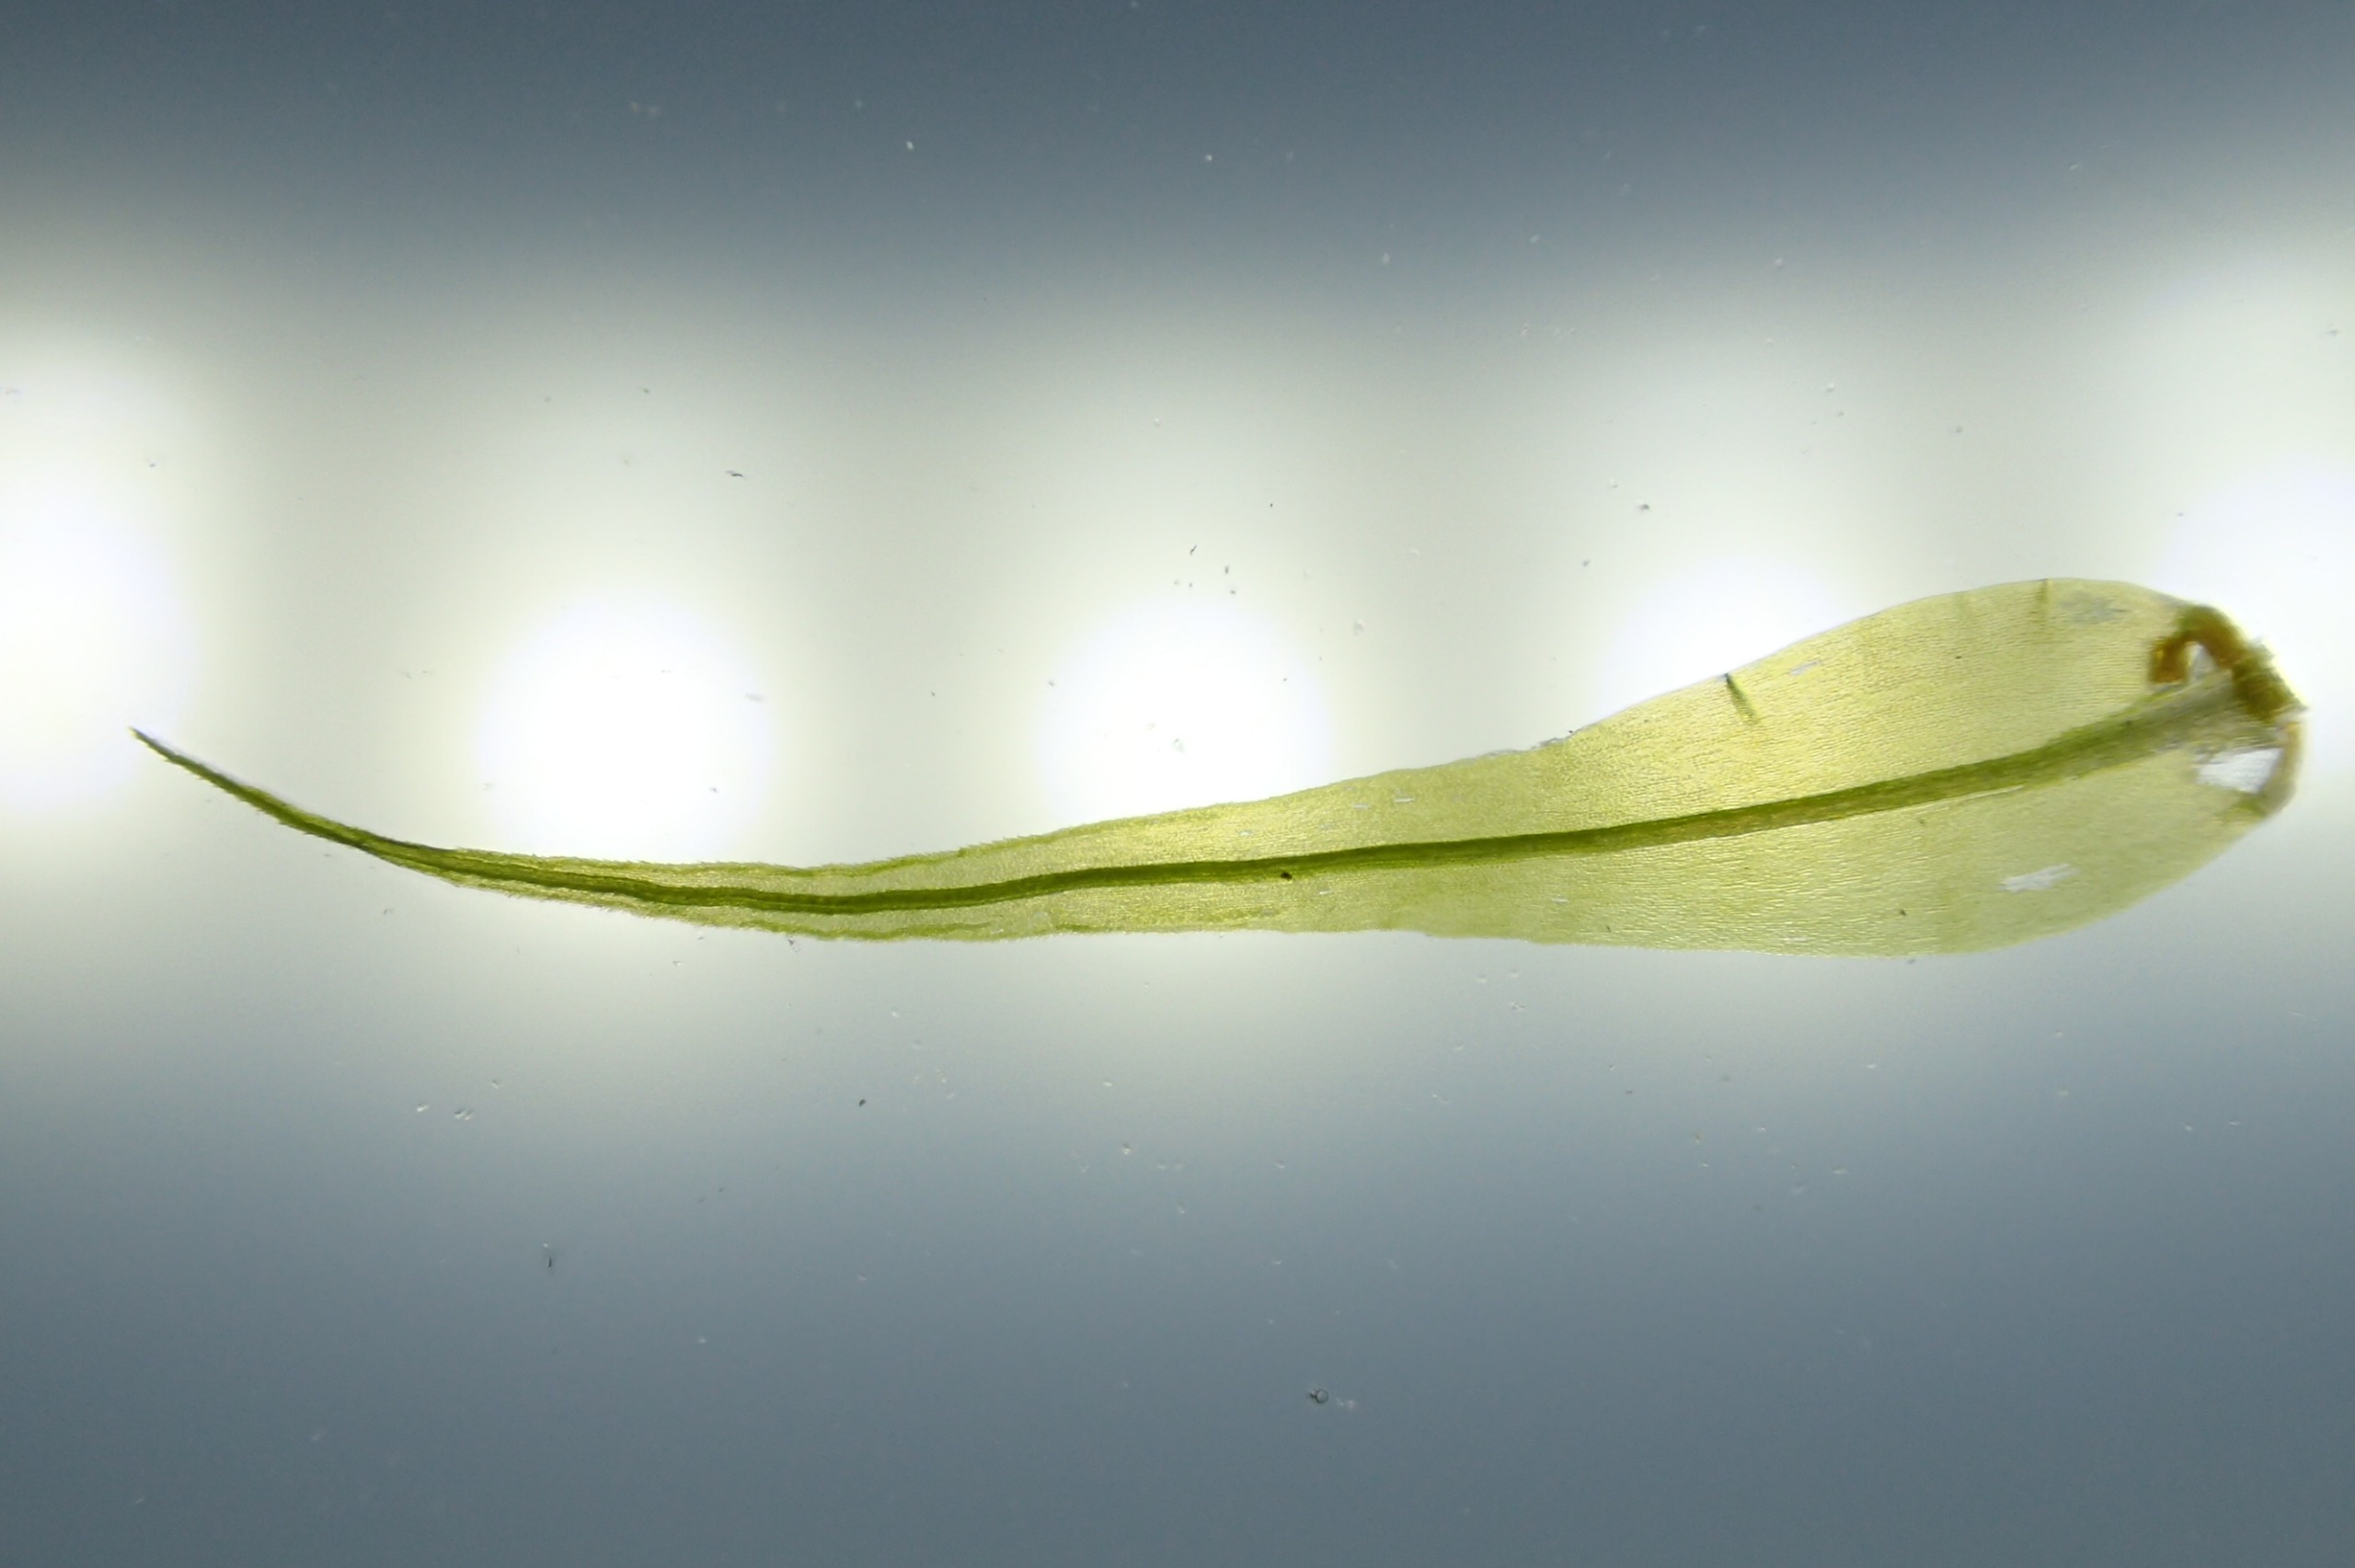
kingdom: Plantae
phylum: Bryophyta
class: Bryopsida
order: Dicranales
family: Dicranaceae
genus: Dicranum
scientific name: Dicranum majus
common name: Stor kløvtand
